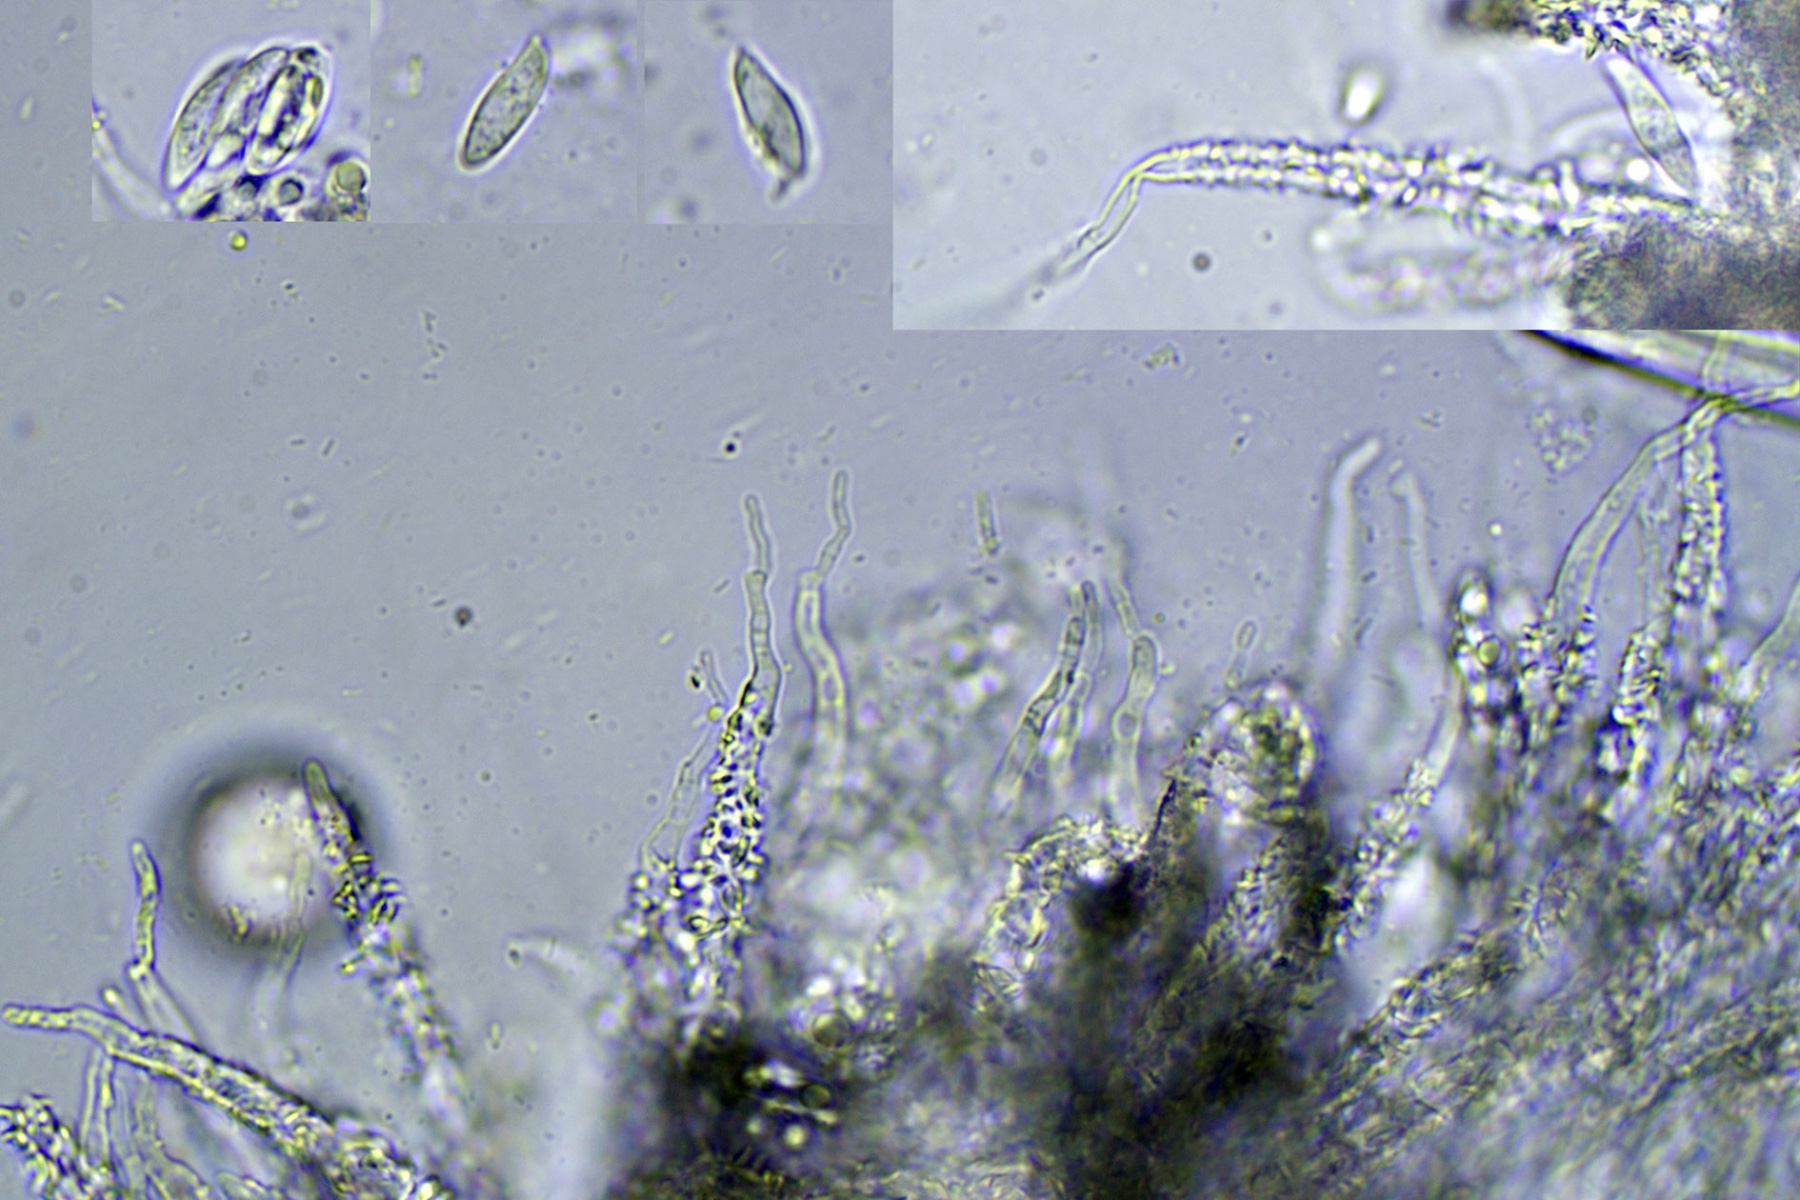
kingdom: Fungi
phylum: Basidiomycota
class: Agaricomycetes
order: Agaricales
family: Niaceae
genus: Flagelloscypha
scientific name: Flagelloscypha fusispora
